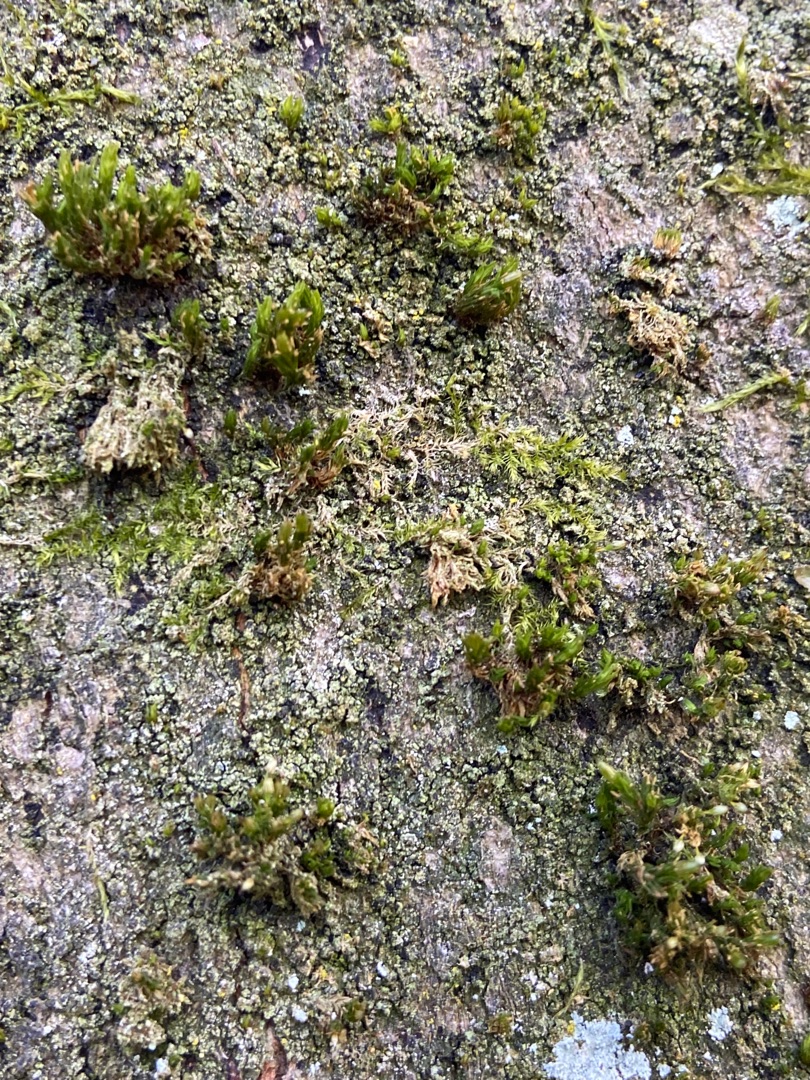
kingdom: Plantae
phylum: Bryophyta
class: Bryopsida
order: Orthotrichales
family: Orthotrichaceae
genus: Orthotrichum
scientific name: Orthotrichum
